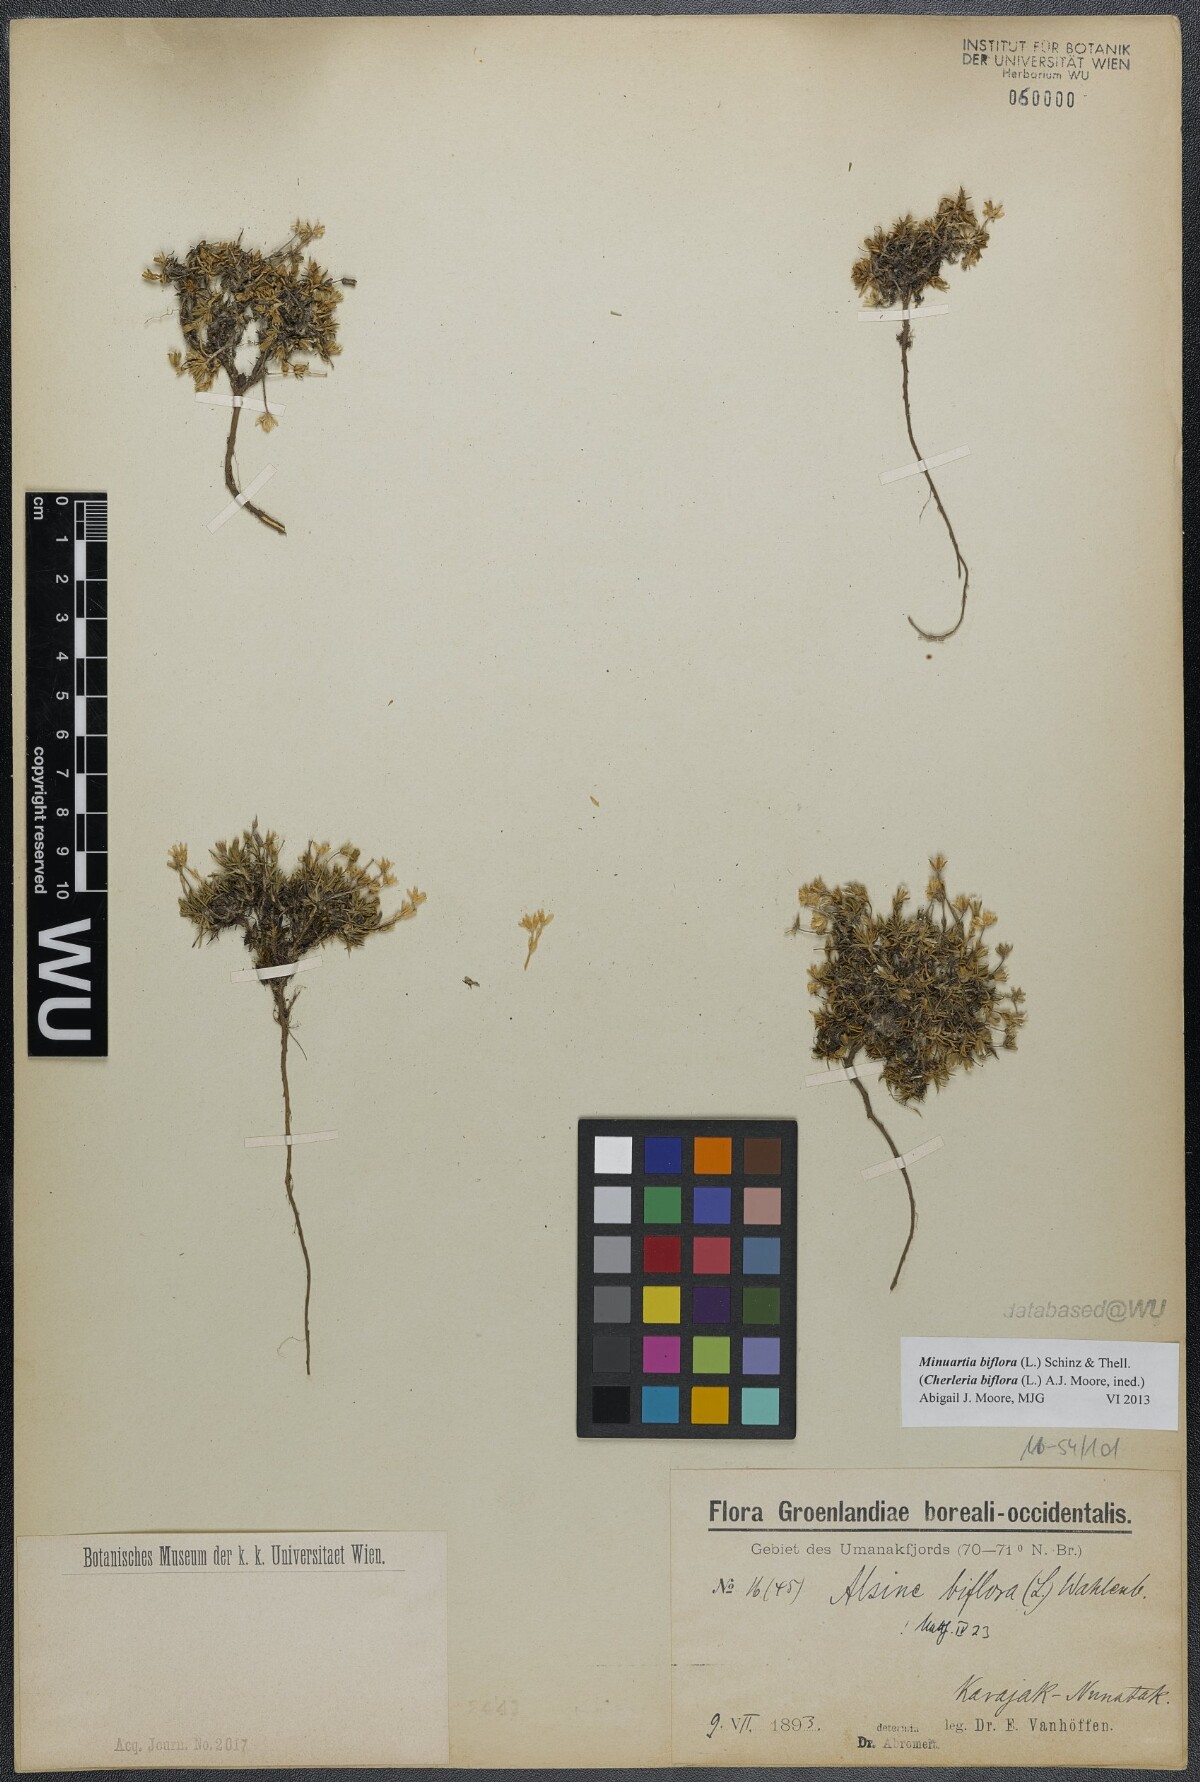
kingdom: Plantae
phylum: Tracheophyta
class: Magnoliopsida
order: Caryophyllales
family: Caryophyllaceae
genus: Cherleria
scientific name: Cherleria biflora
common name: Mountain sandwort
